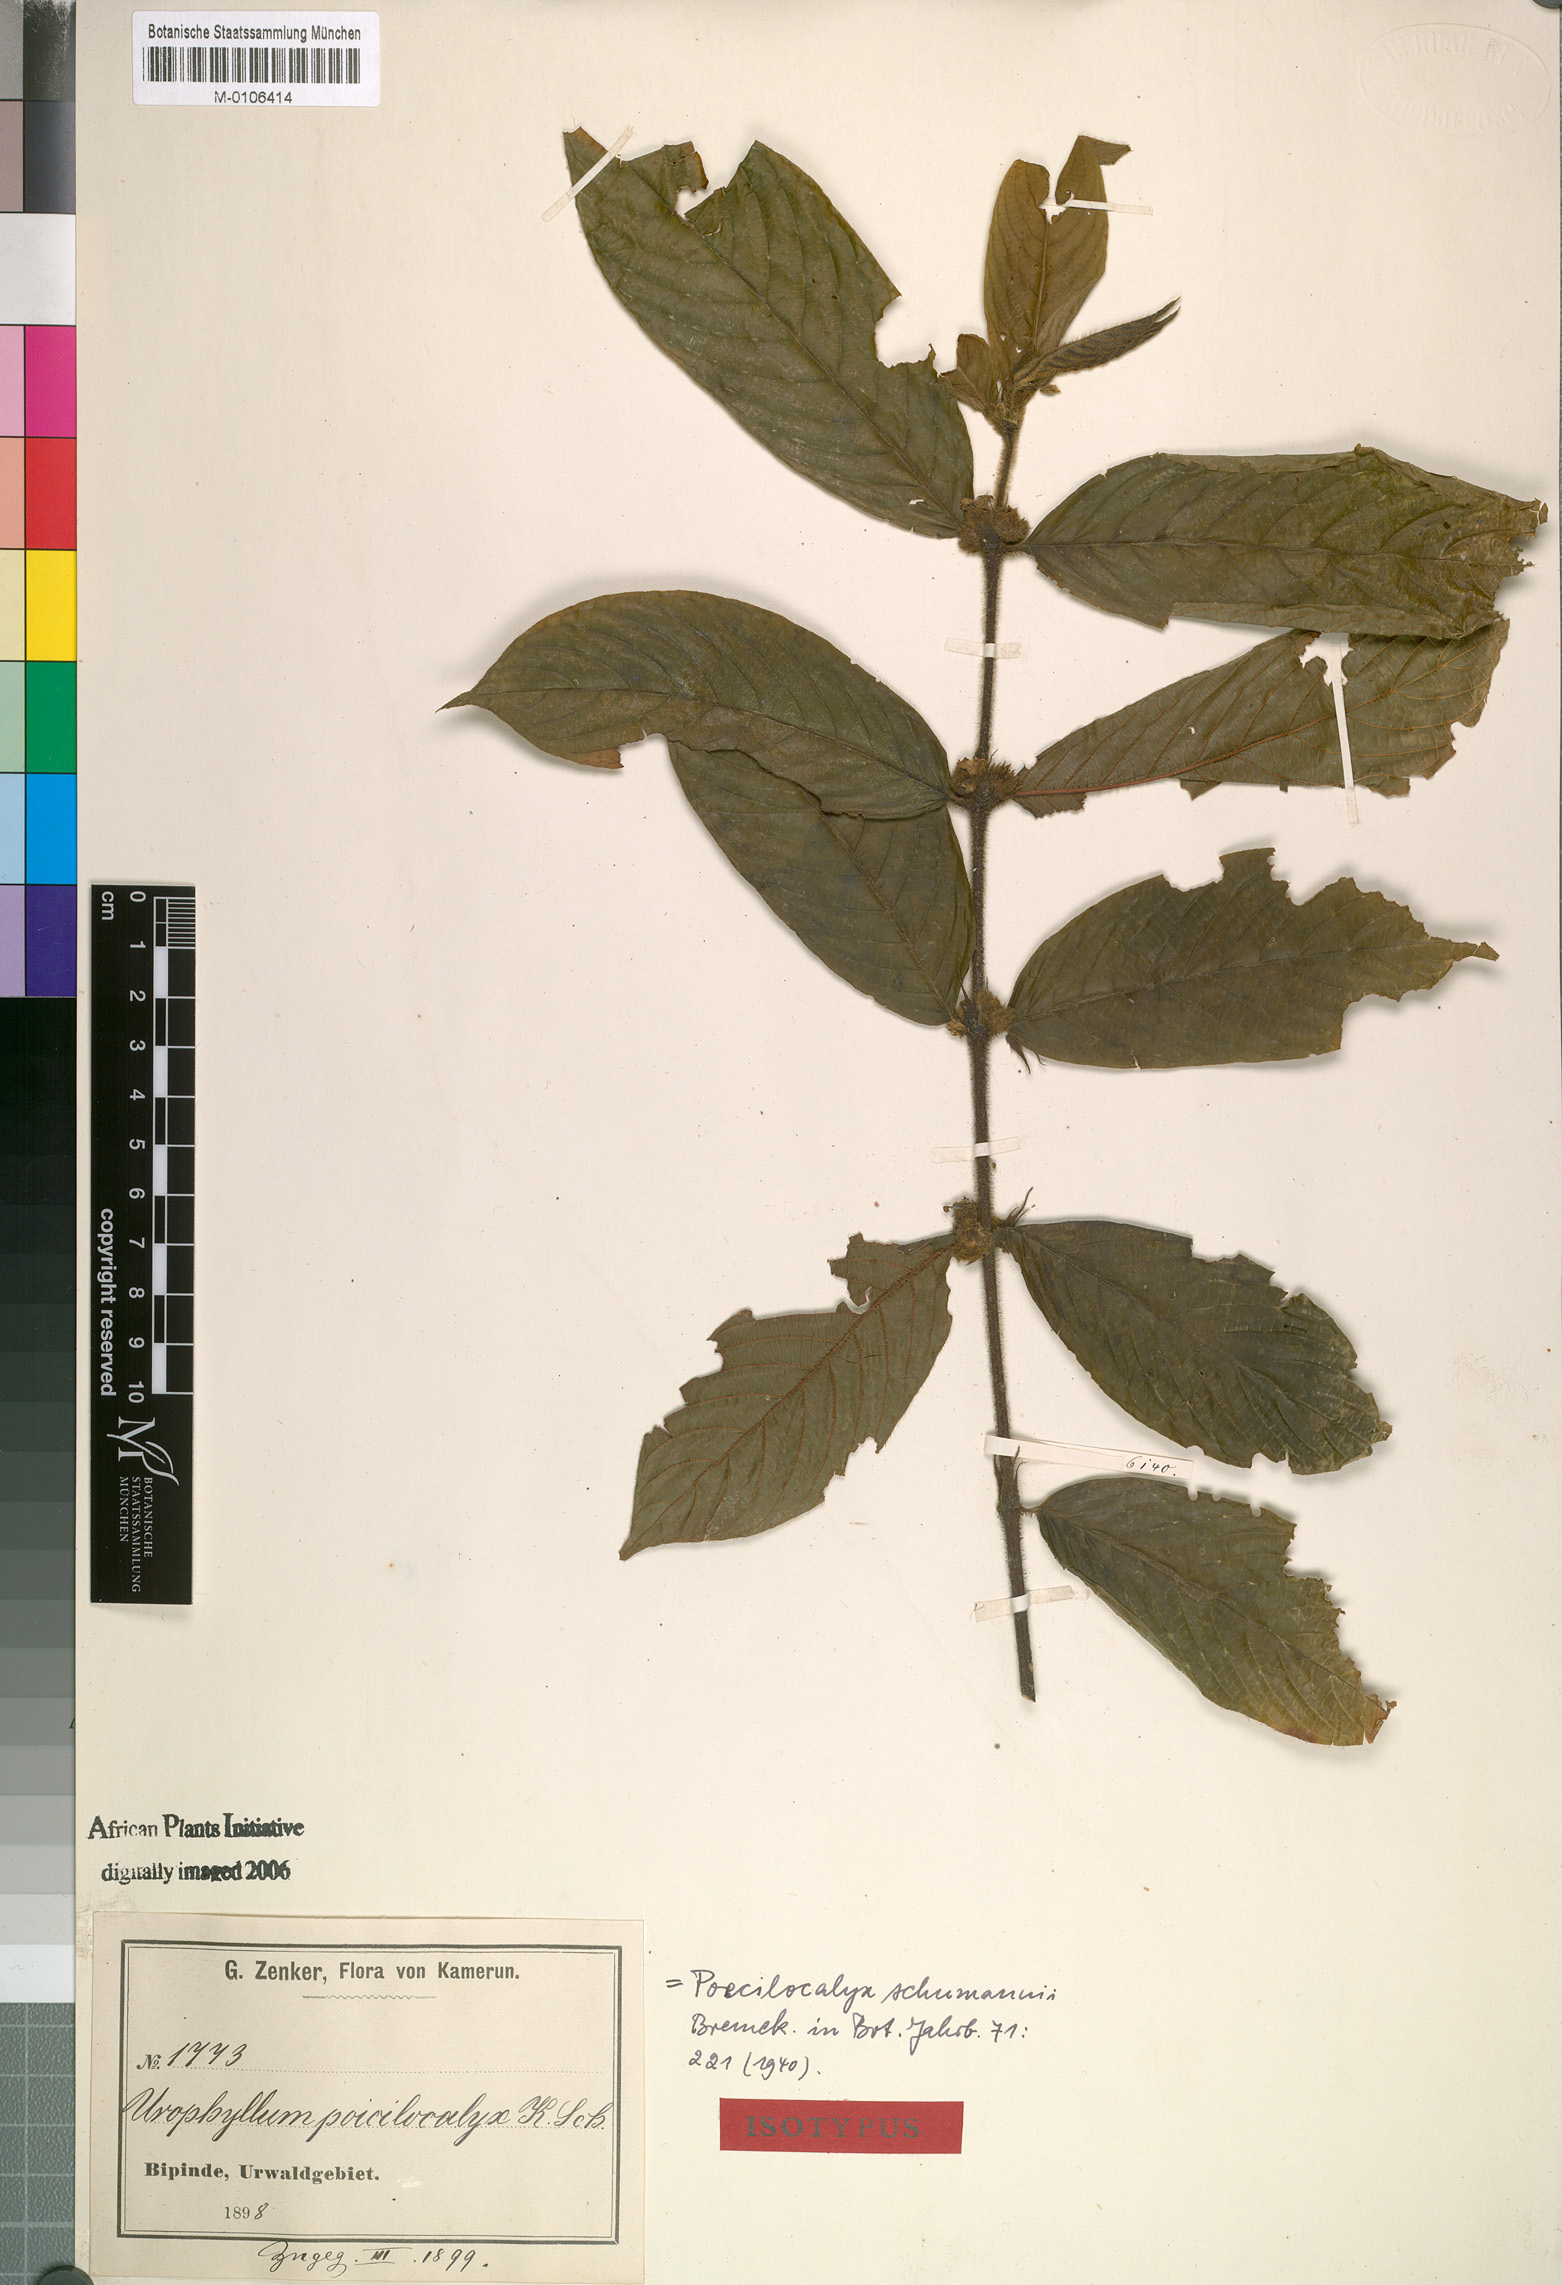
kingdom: Plantae
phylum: Tracheophyta
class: Magnoliopsida
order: Gentianales
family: Rubiaceae
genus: Pauridiantha
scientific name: Pauridiantha schumannii
